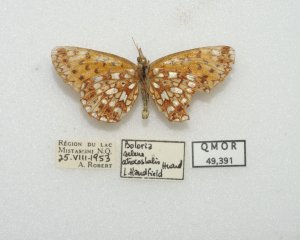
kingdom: Animalia
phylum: Arthropoda
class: Insecta
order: Lepidoptera
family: Nymphalidae
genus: Boloria
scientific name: Boloria selene
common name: Silver-bordered Fritillary
